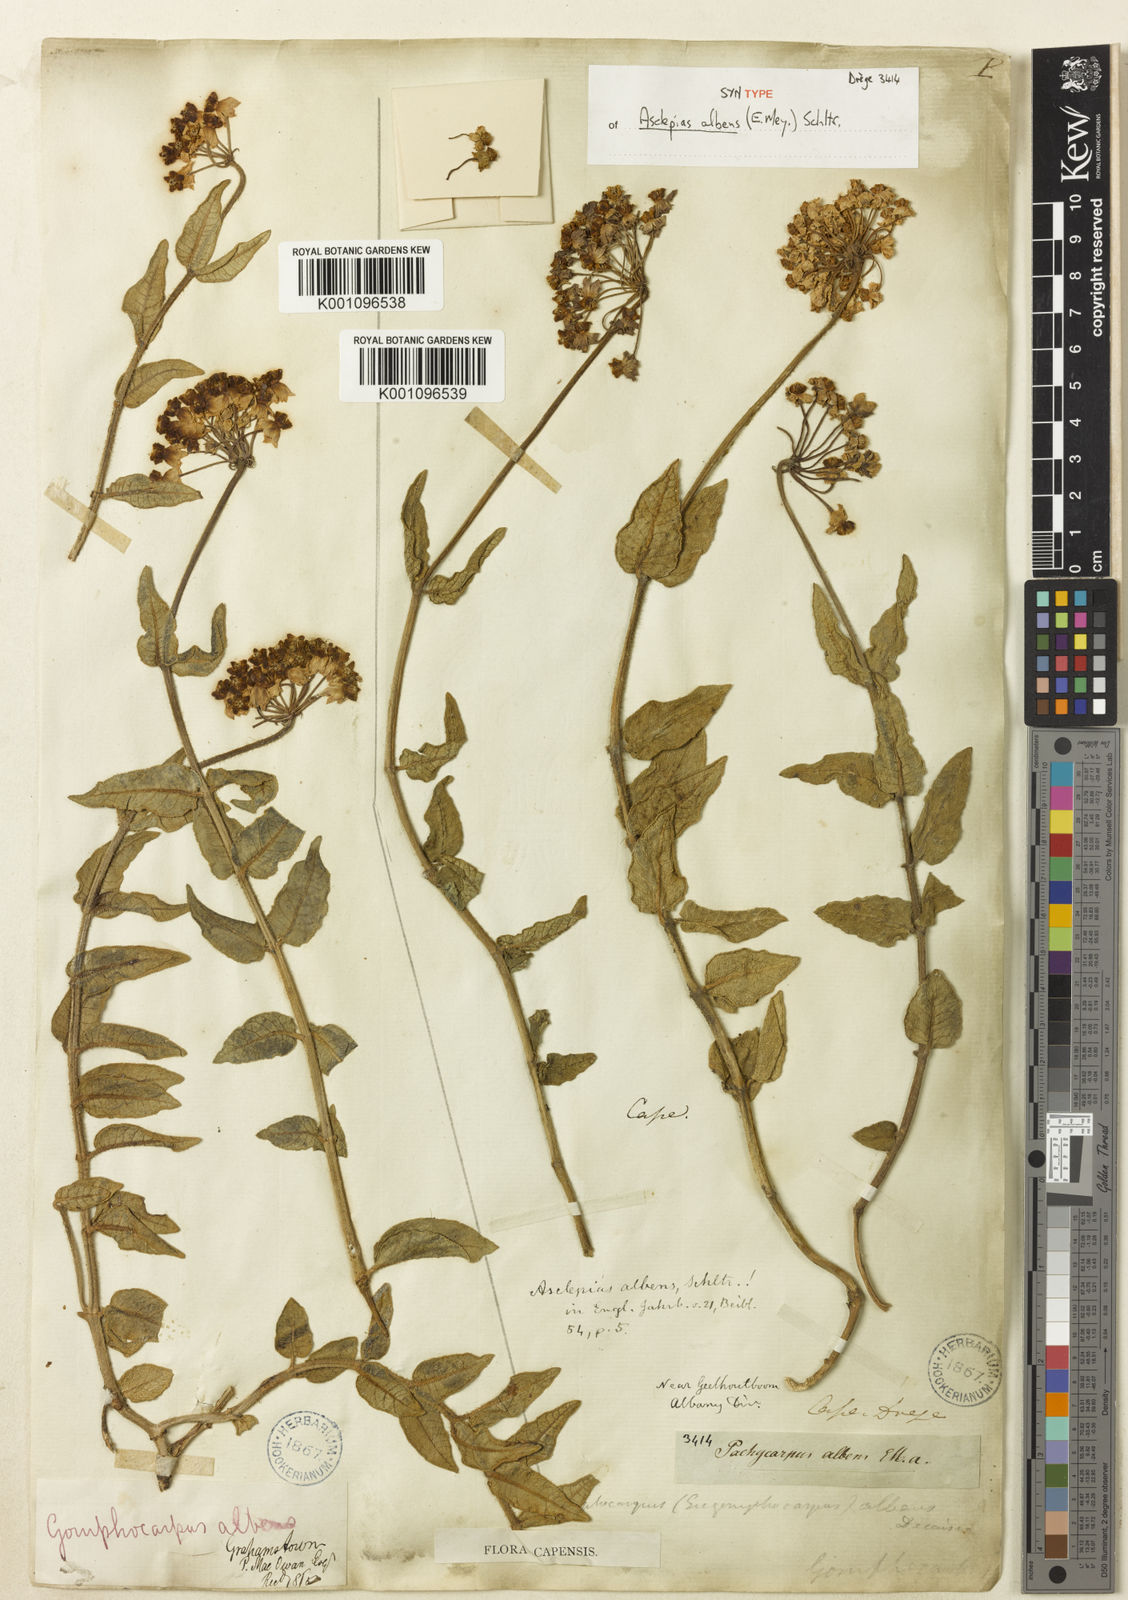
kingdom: Plantae
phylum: Tracheophyta
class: Magnoliopsida
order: Gentianales
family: Apocynaceae
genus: Asclepias
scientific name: Asclepias albens
